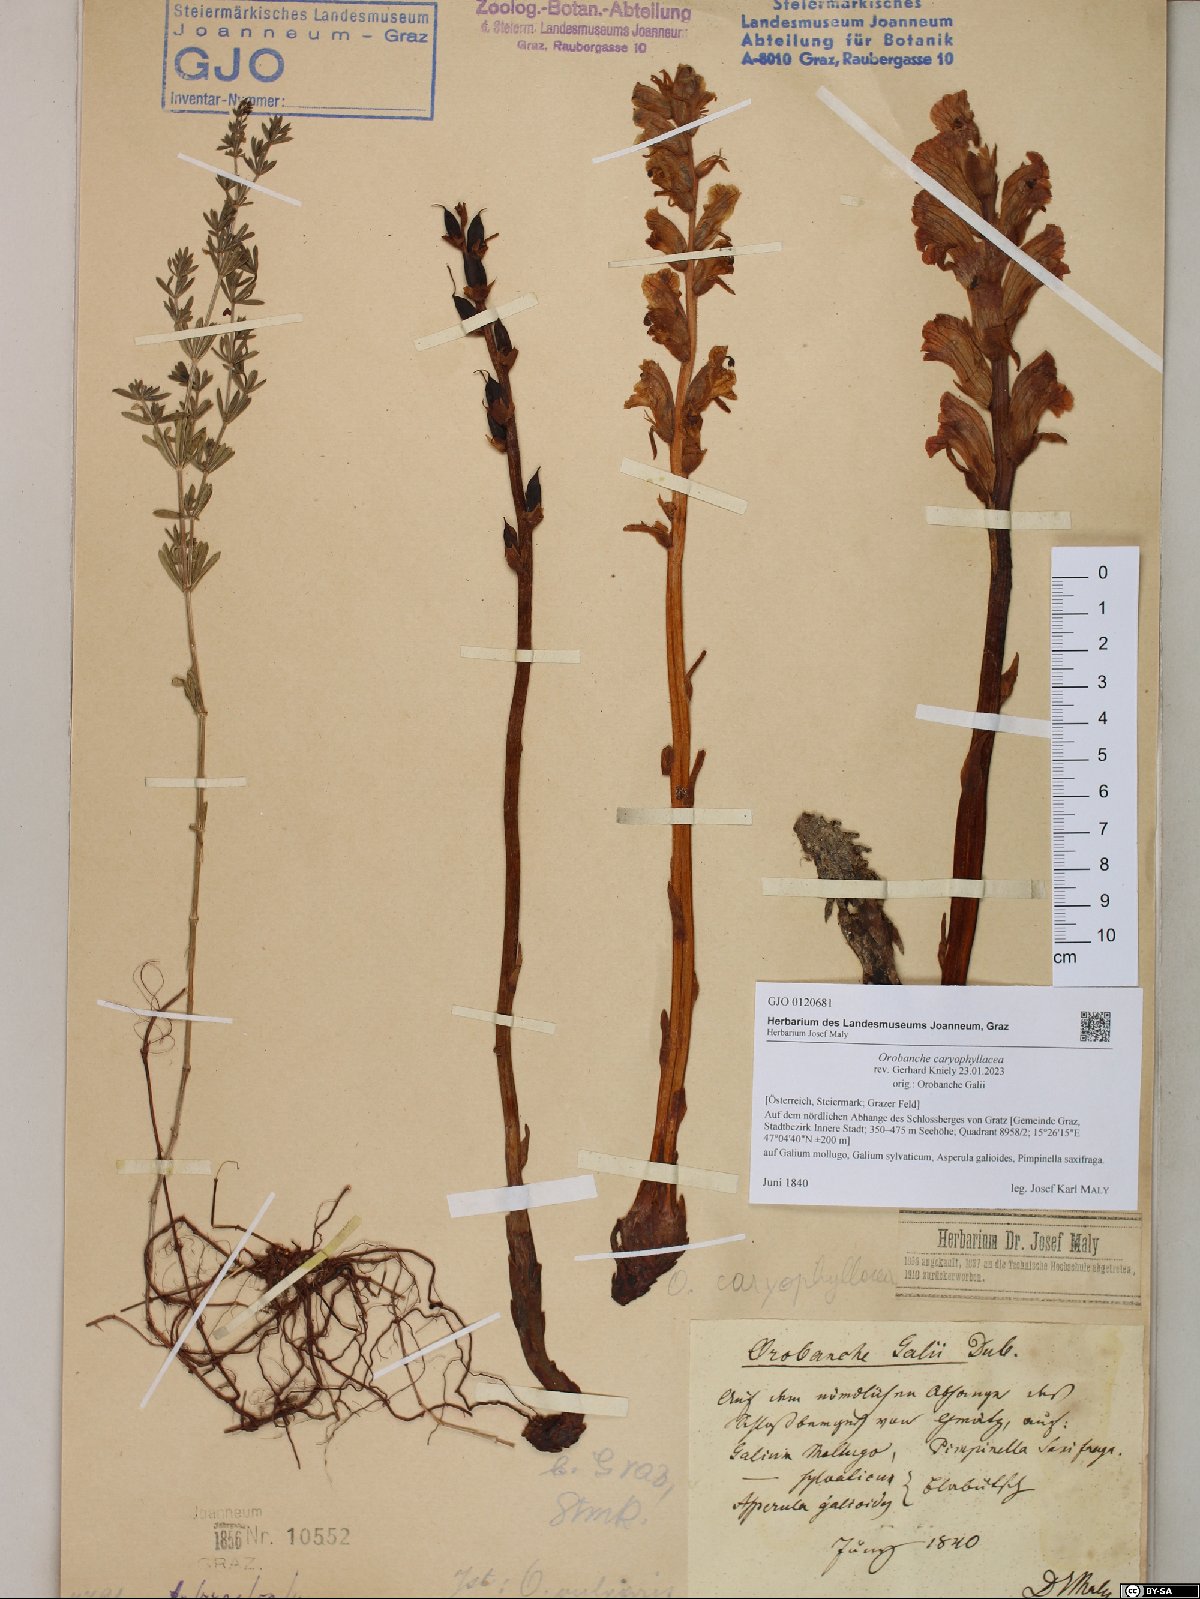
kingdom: Plantae
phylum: Tracheophyta
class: Magnoliopsida
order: Lamiales
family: Orobanchaceae
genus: Orobanche
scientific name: Orobanche caryophyllacea
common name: Bedstraw broomrape
